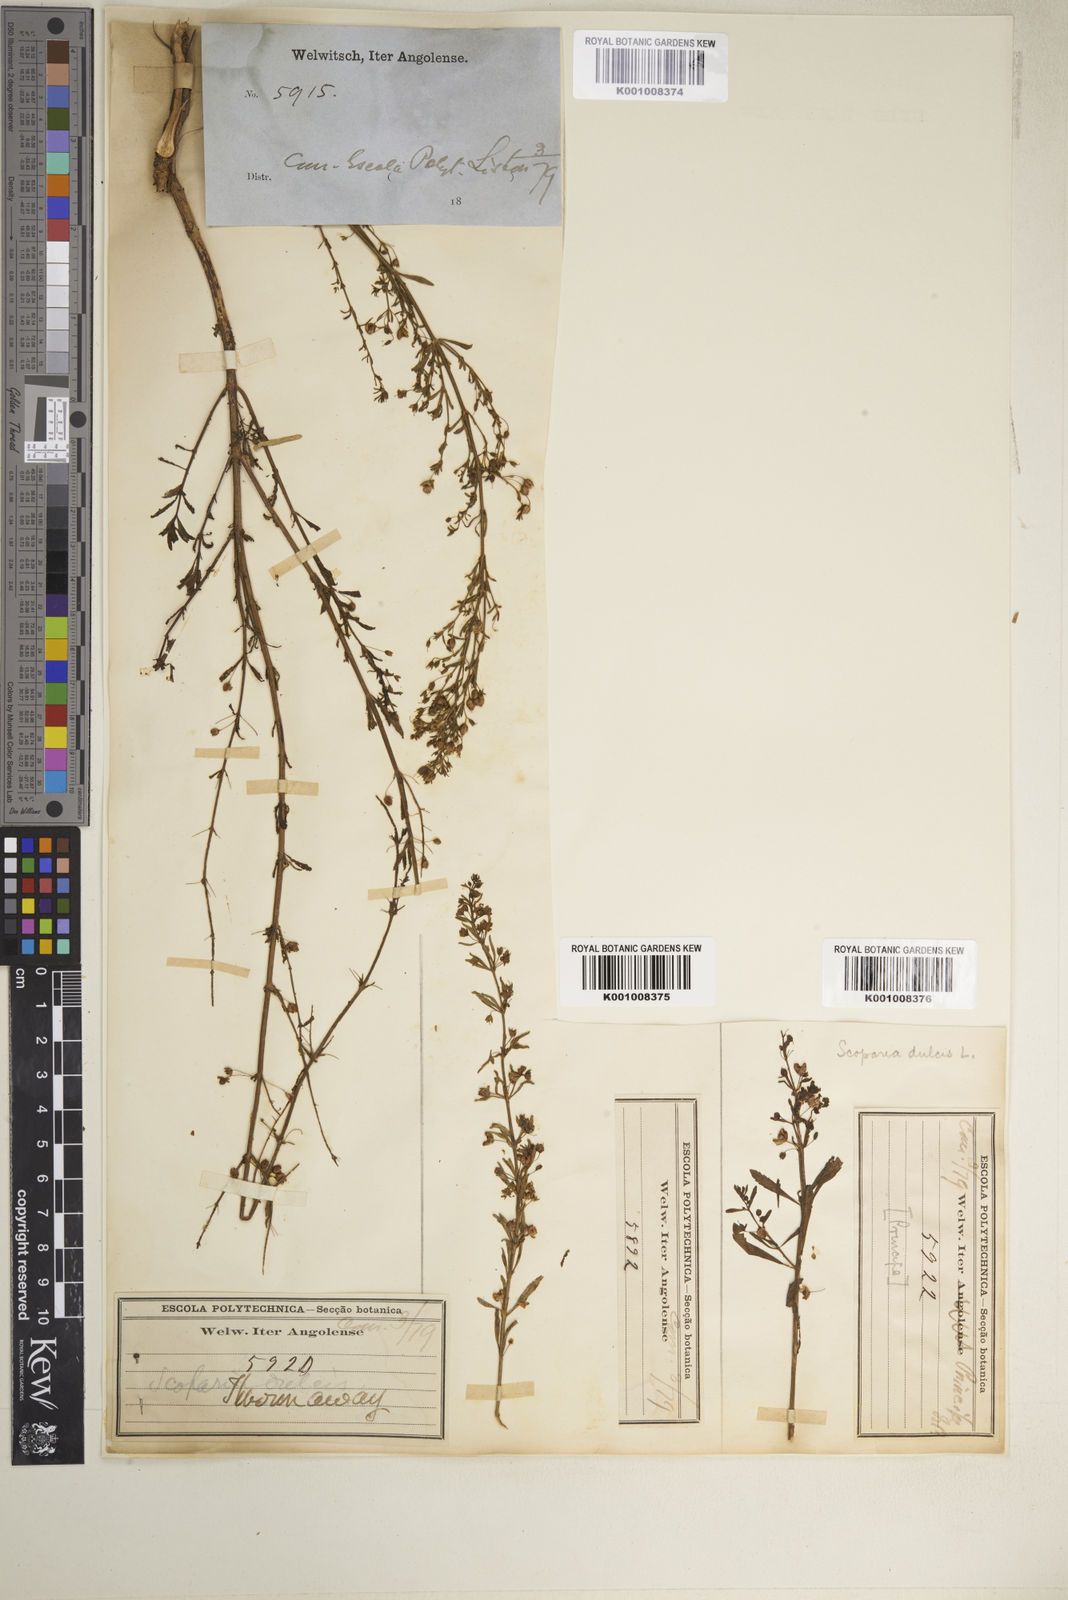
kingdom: Plantae
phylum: Tracheophyta
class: Magnoliopsida
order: Lamiales
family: Plantaginaceae
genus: Scoparia
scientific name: Scoparia dulcis
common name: Scoparia-weed
